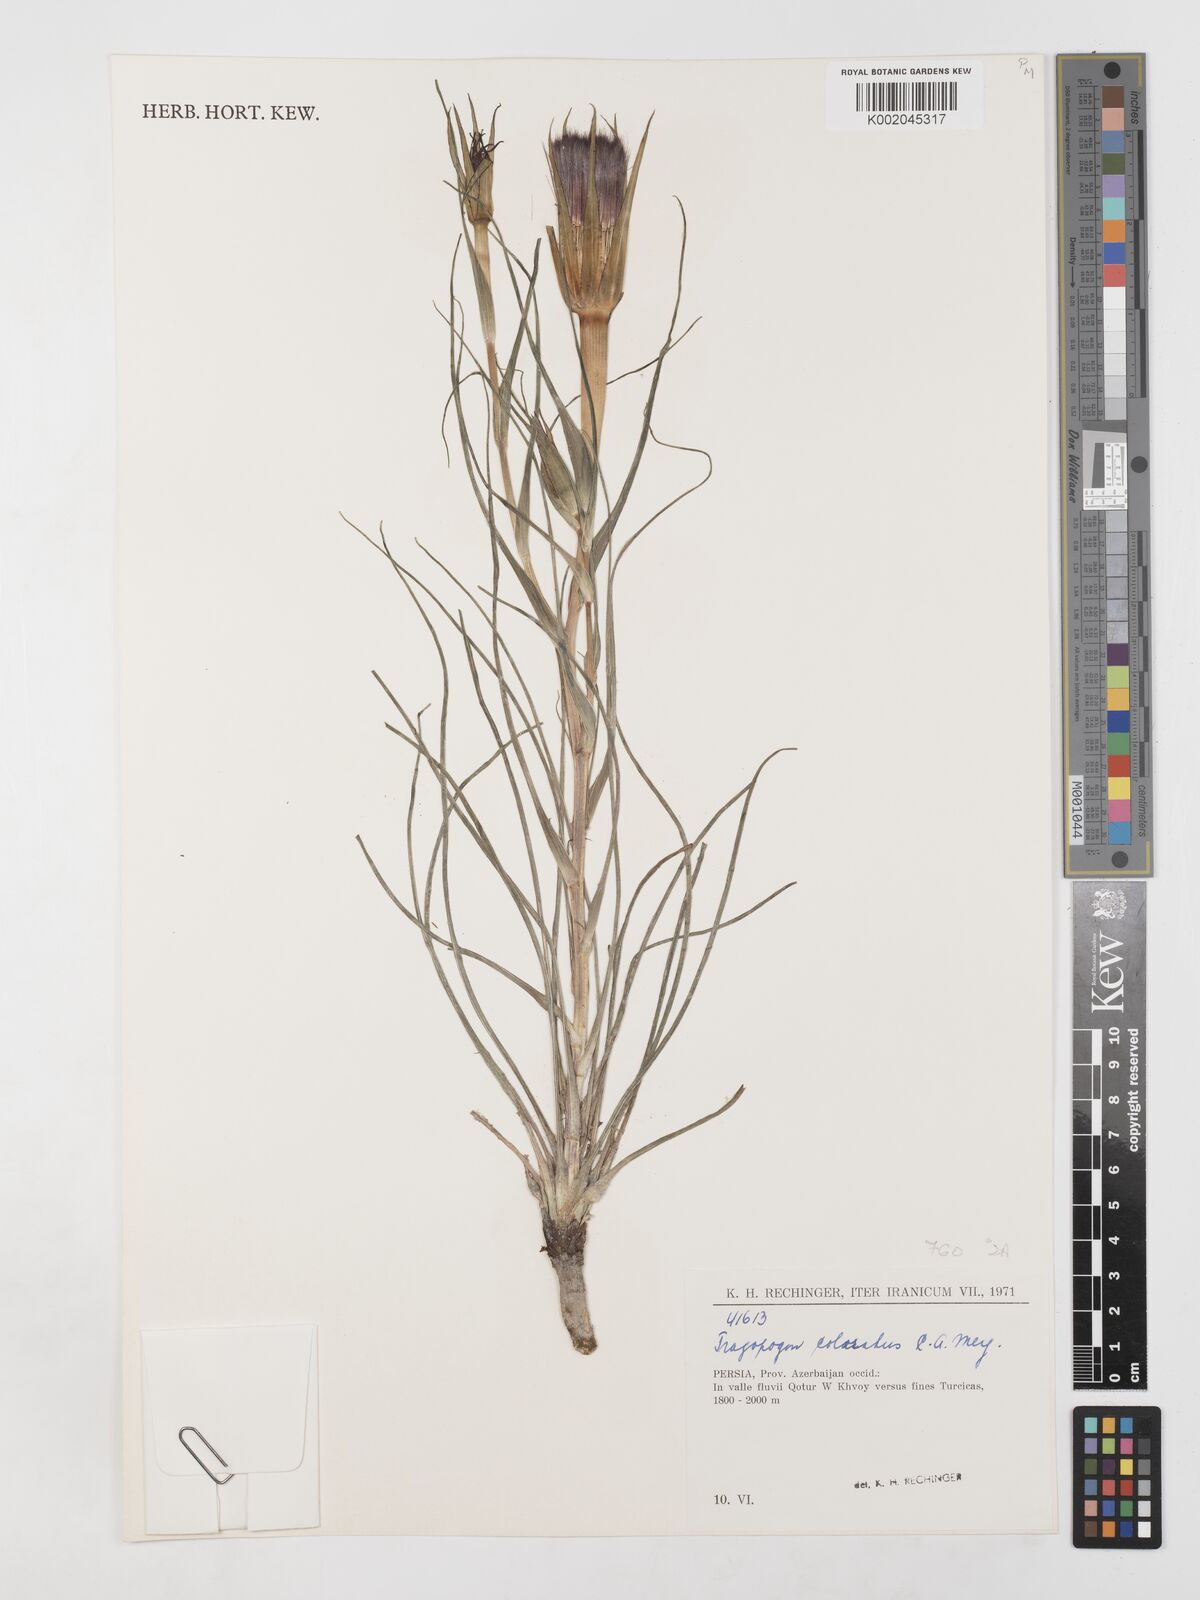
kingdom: Plantae
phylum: Tracheophyta
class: Magnoliopsida
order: Asterales
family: Asteraceae
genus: Tragopogon
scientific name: Tragopogon coloratus
